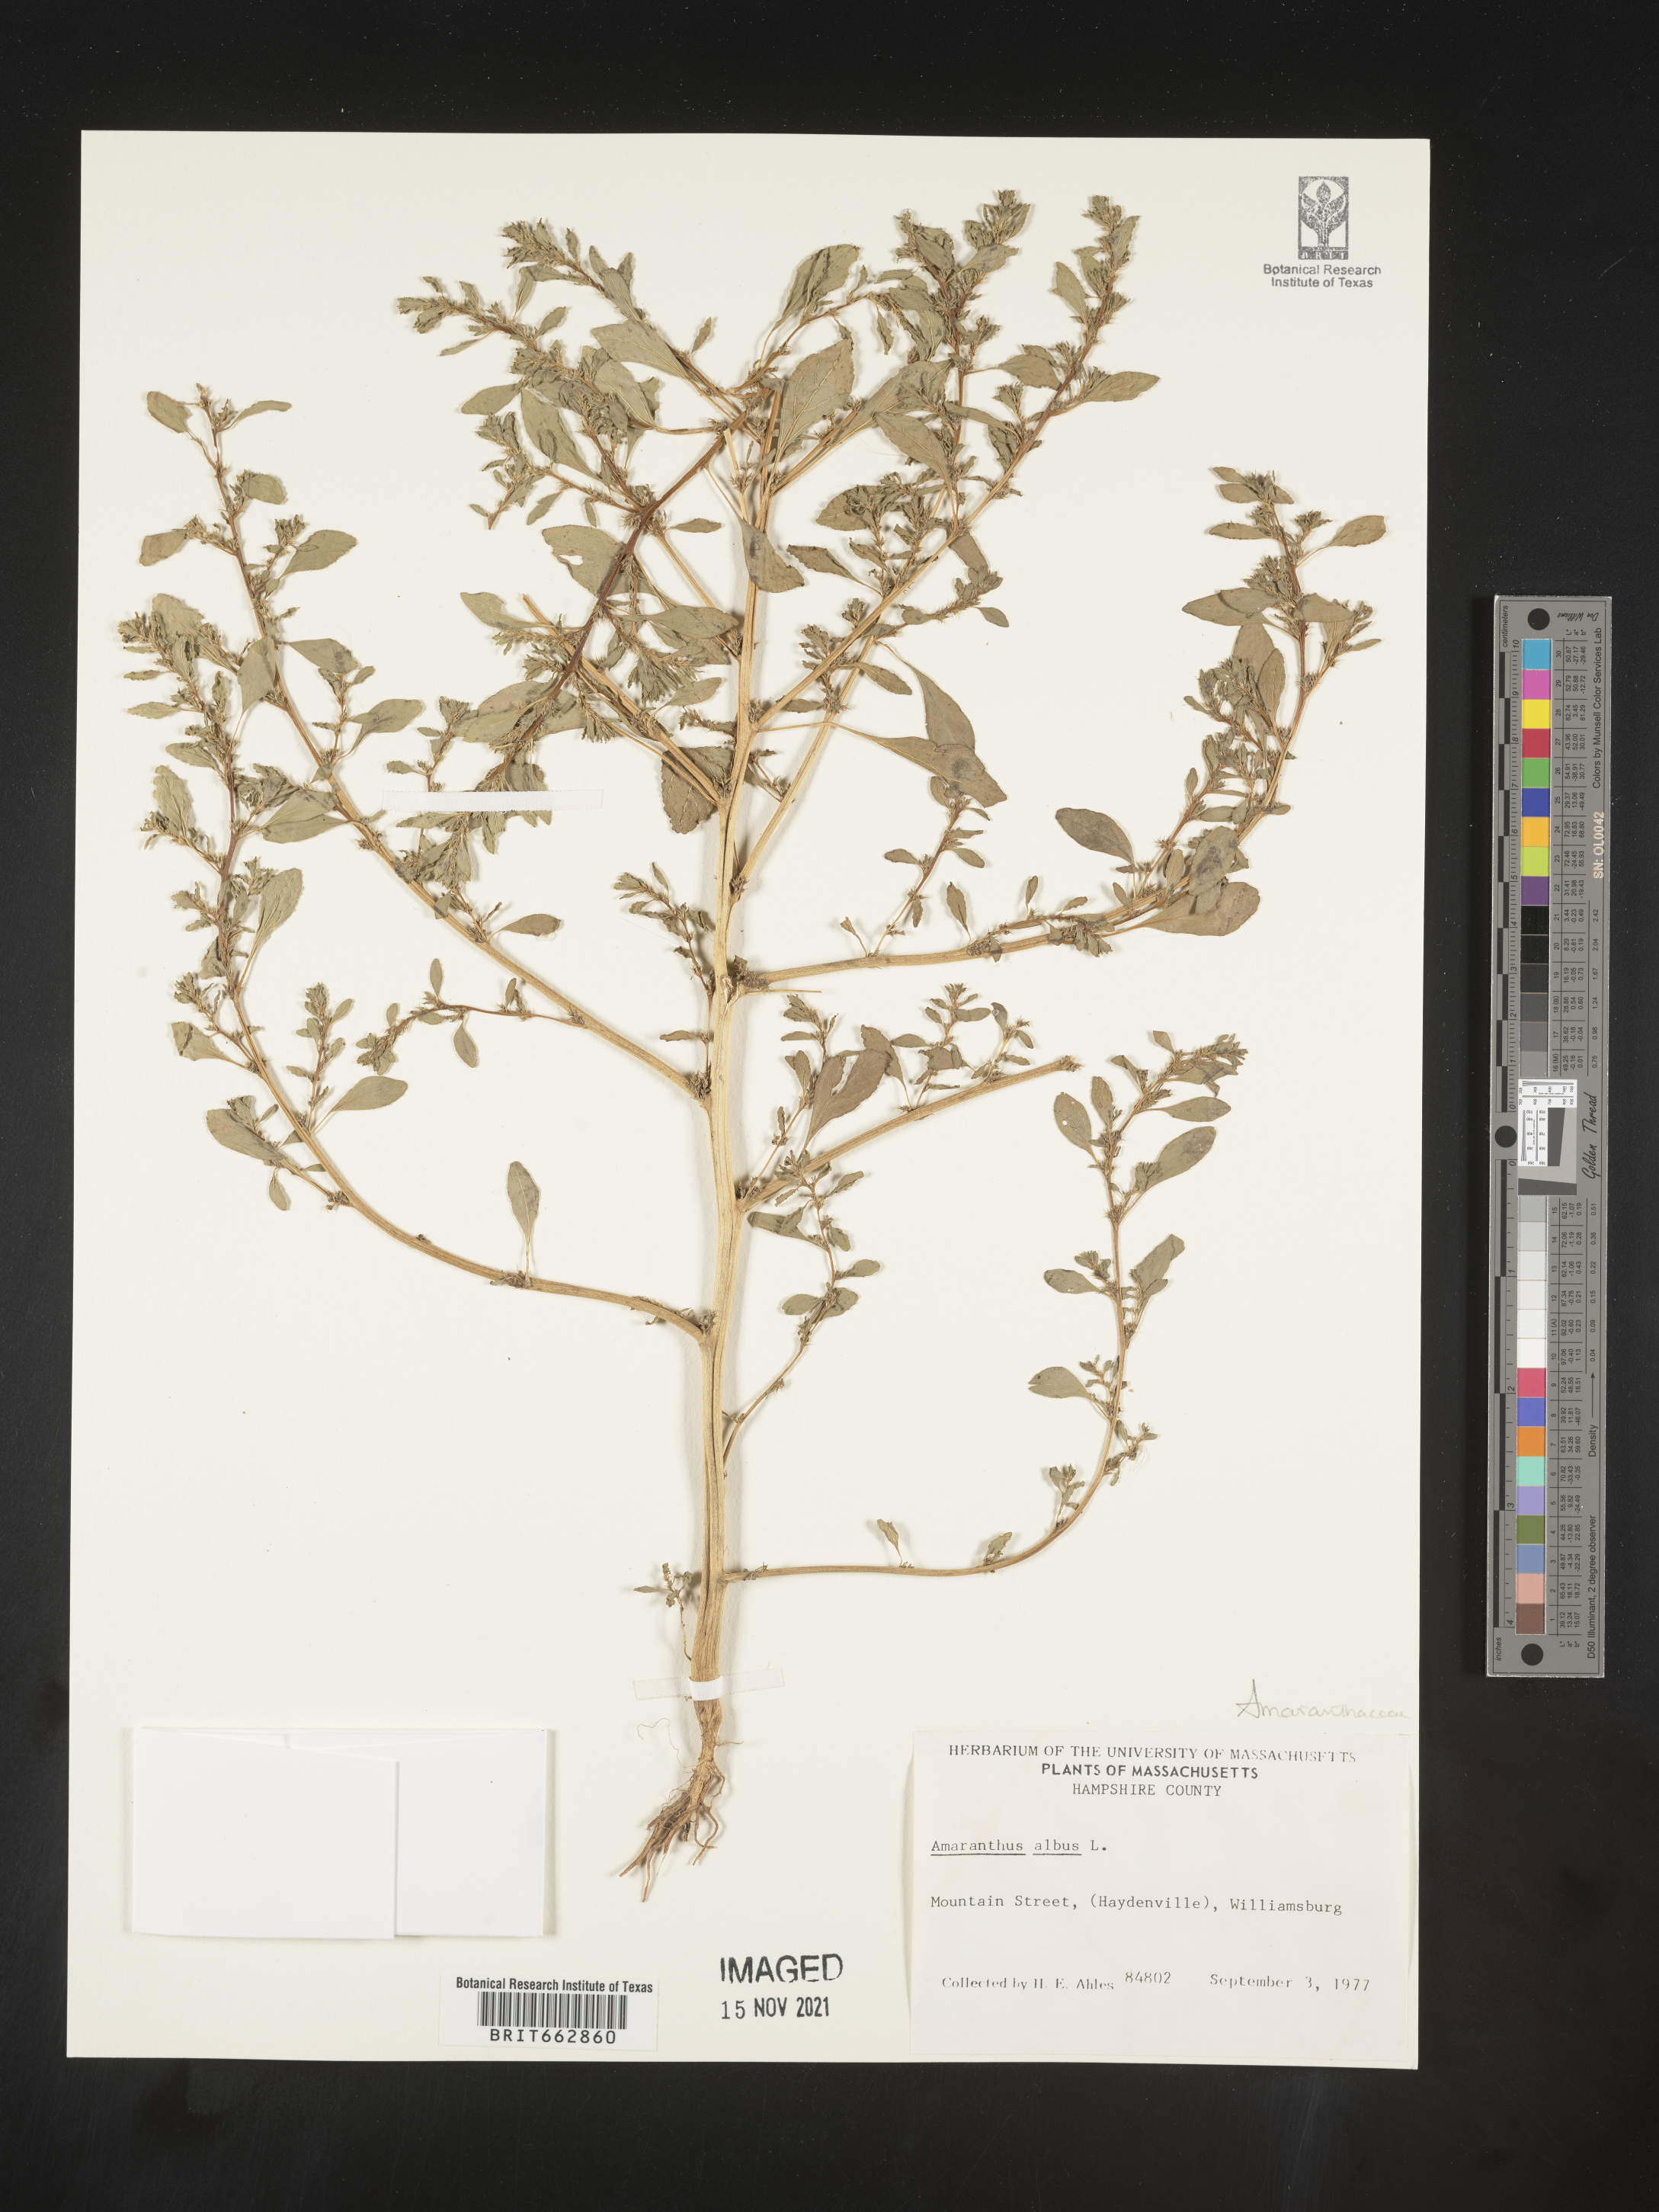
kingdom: Plantae
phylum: Tracheophyta
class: Magnoliopsida
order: Caryophyllales
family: Amaranthaceae
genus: Amaranthus
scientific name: Amaranthus albus
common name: White pigweed
